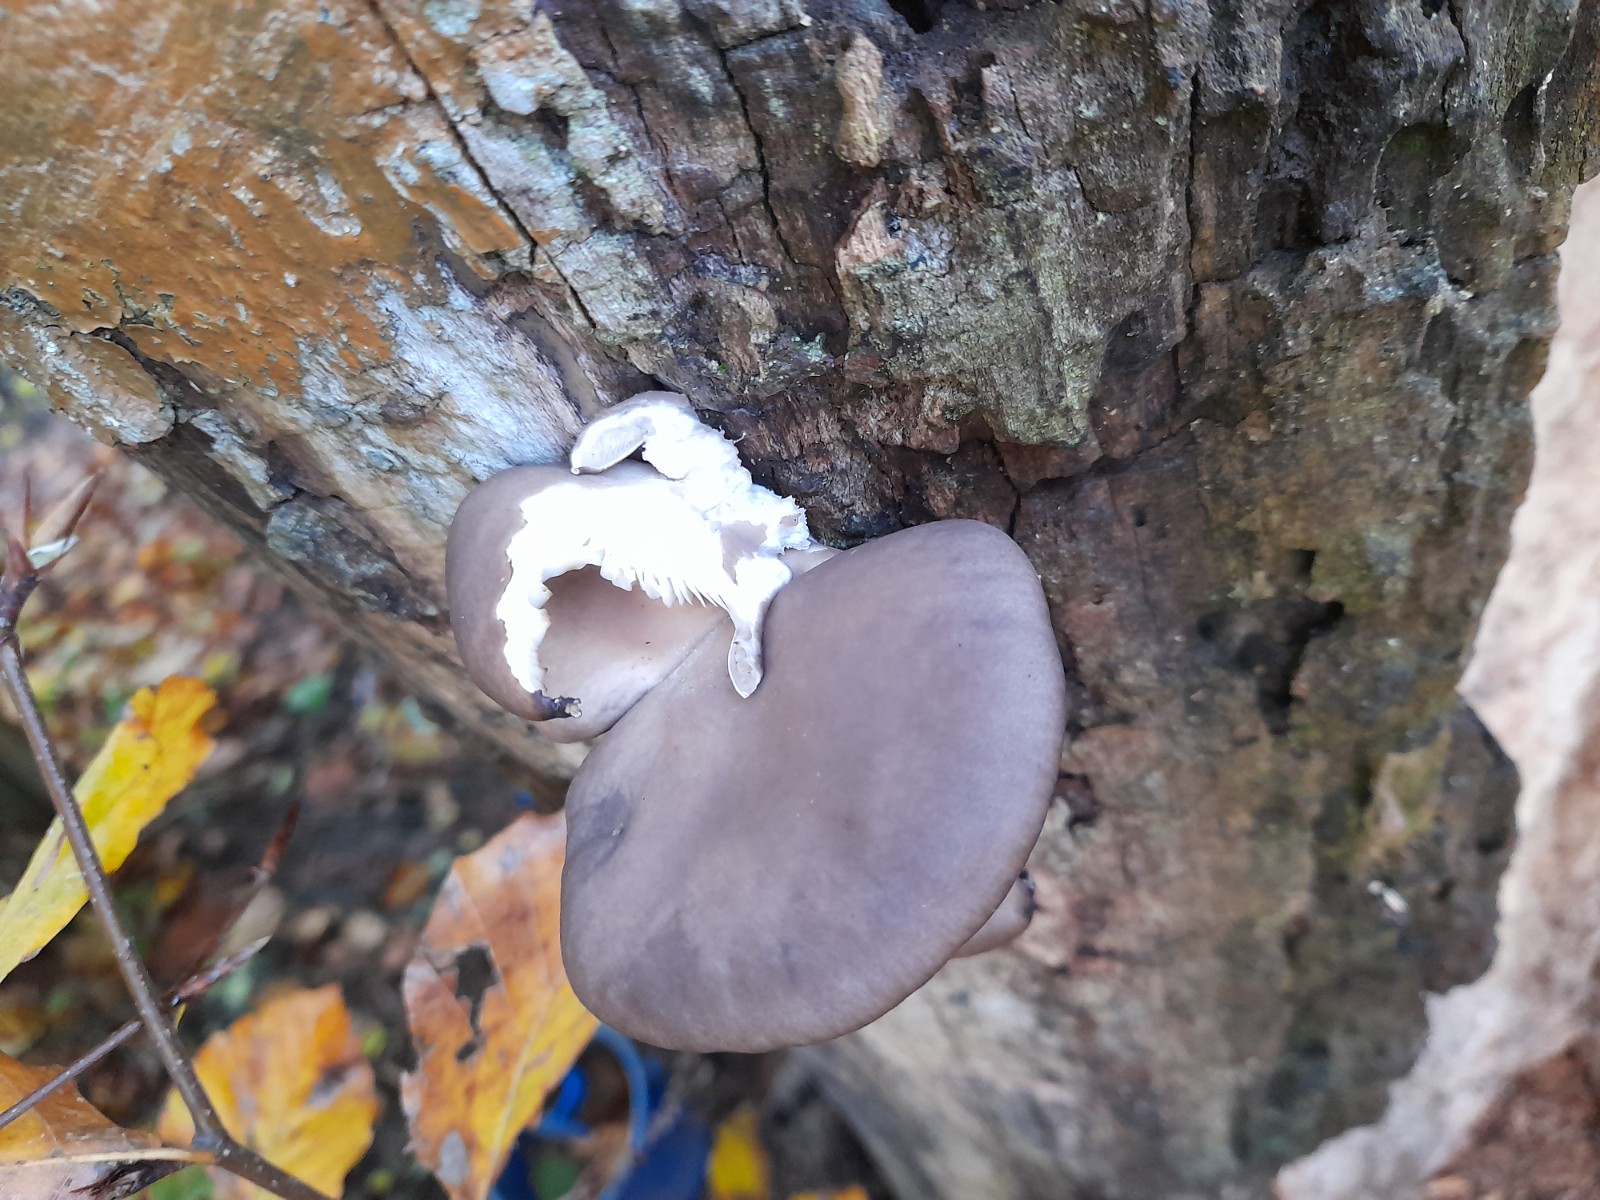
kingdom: Fungi
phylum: Basidiomycota
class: Agaricomycetes
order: Agaricales
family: Pleurotaceae
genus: Pleurotus
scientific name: Pleurotus ostreatus
